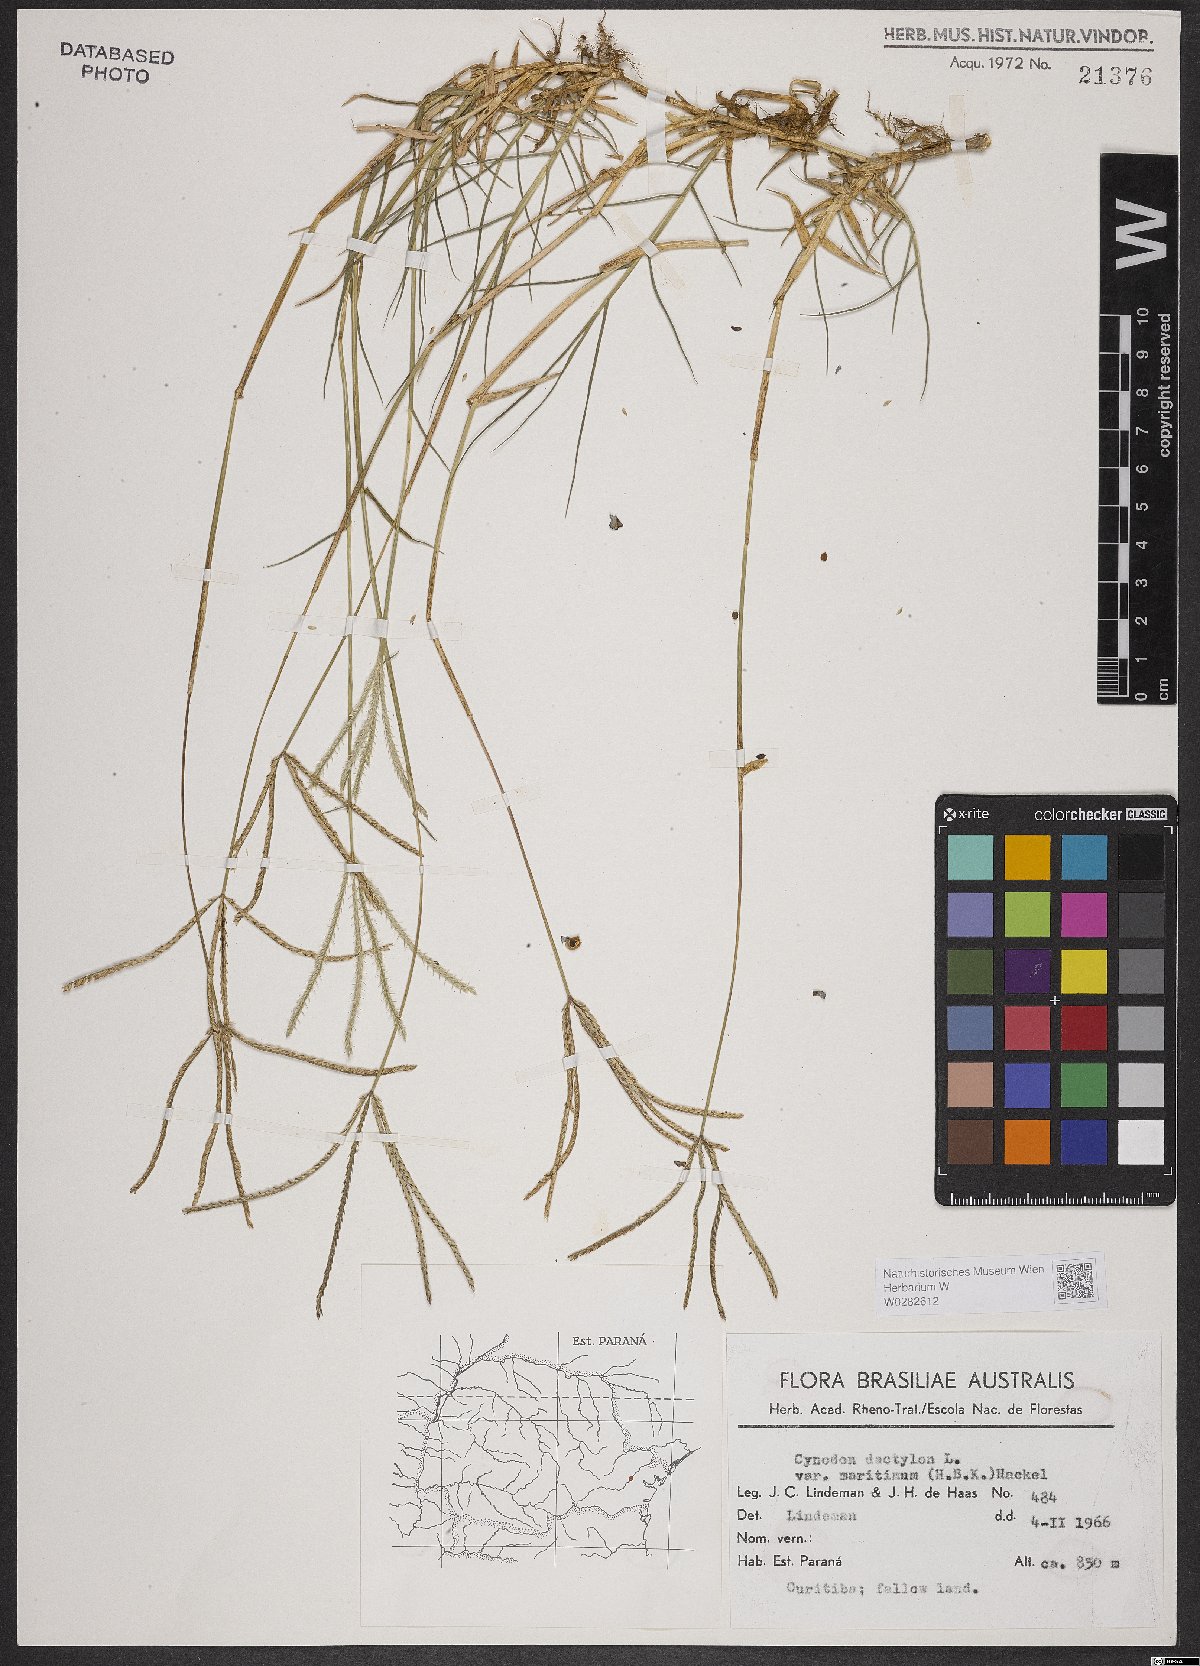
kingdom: Plantae
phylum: Tracheophyta
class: Liliopsida
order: Poales
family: Poaceae
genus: Cynodon
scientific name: Cynodon dactylon
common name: Bermuda grass
